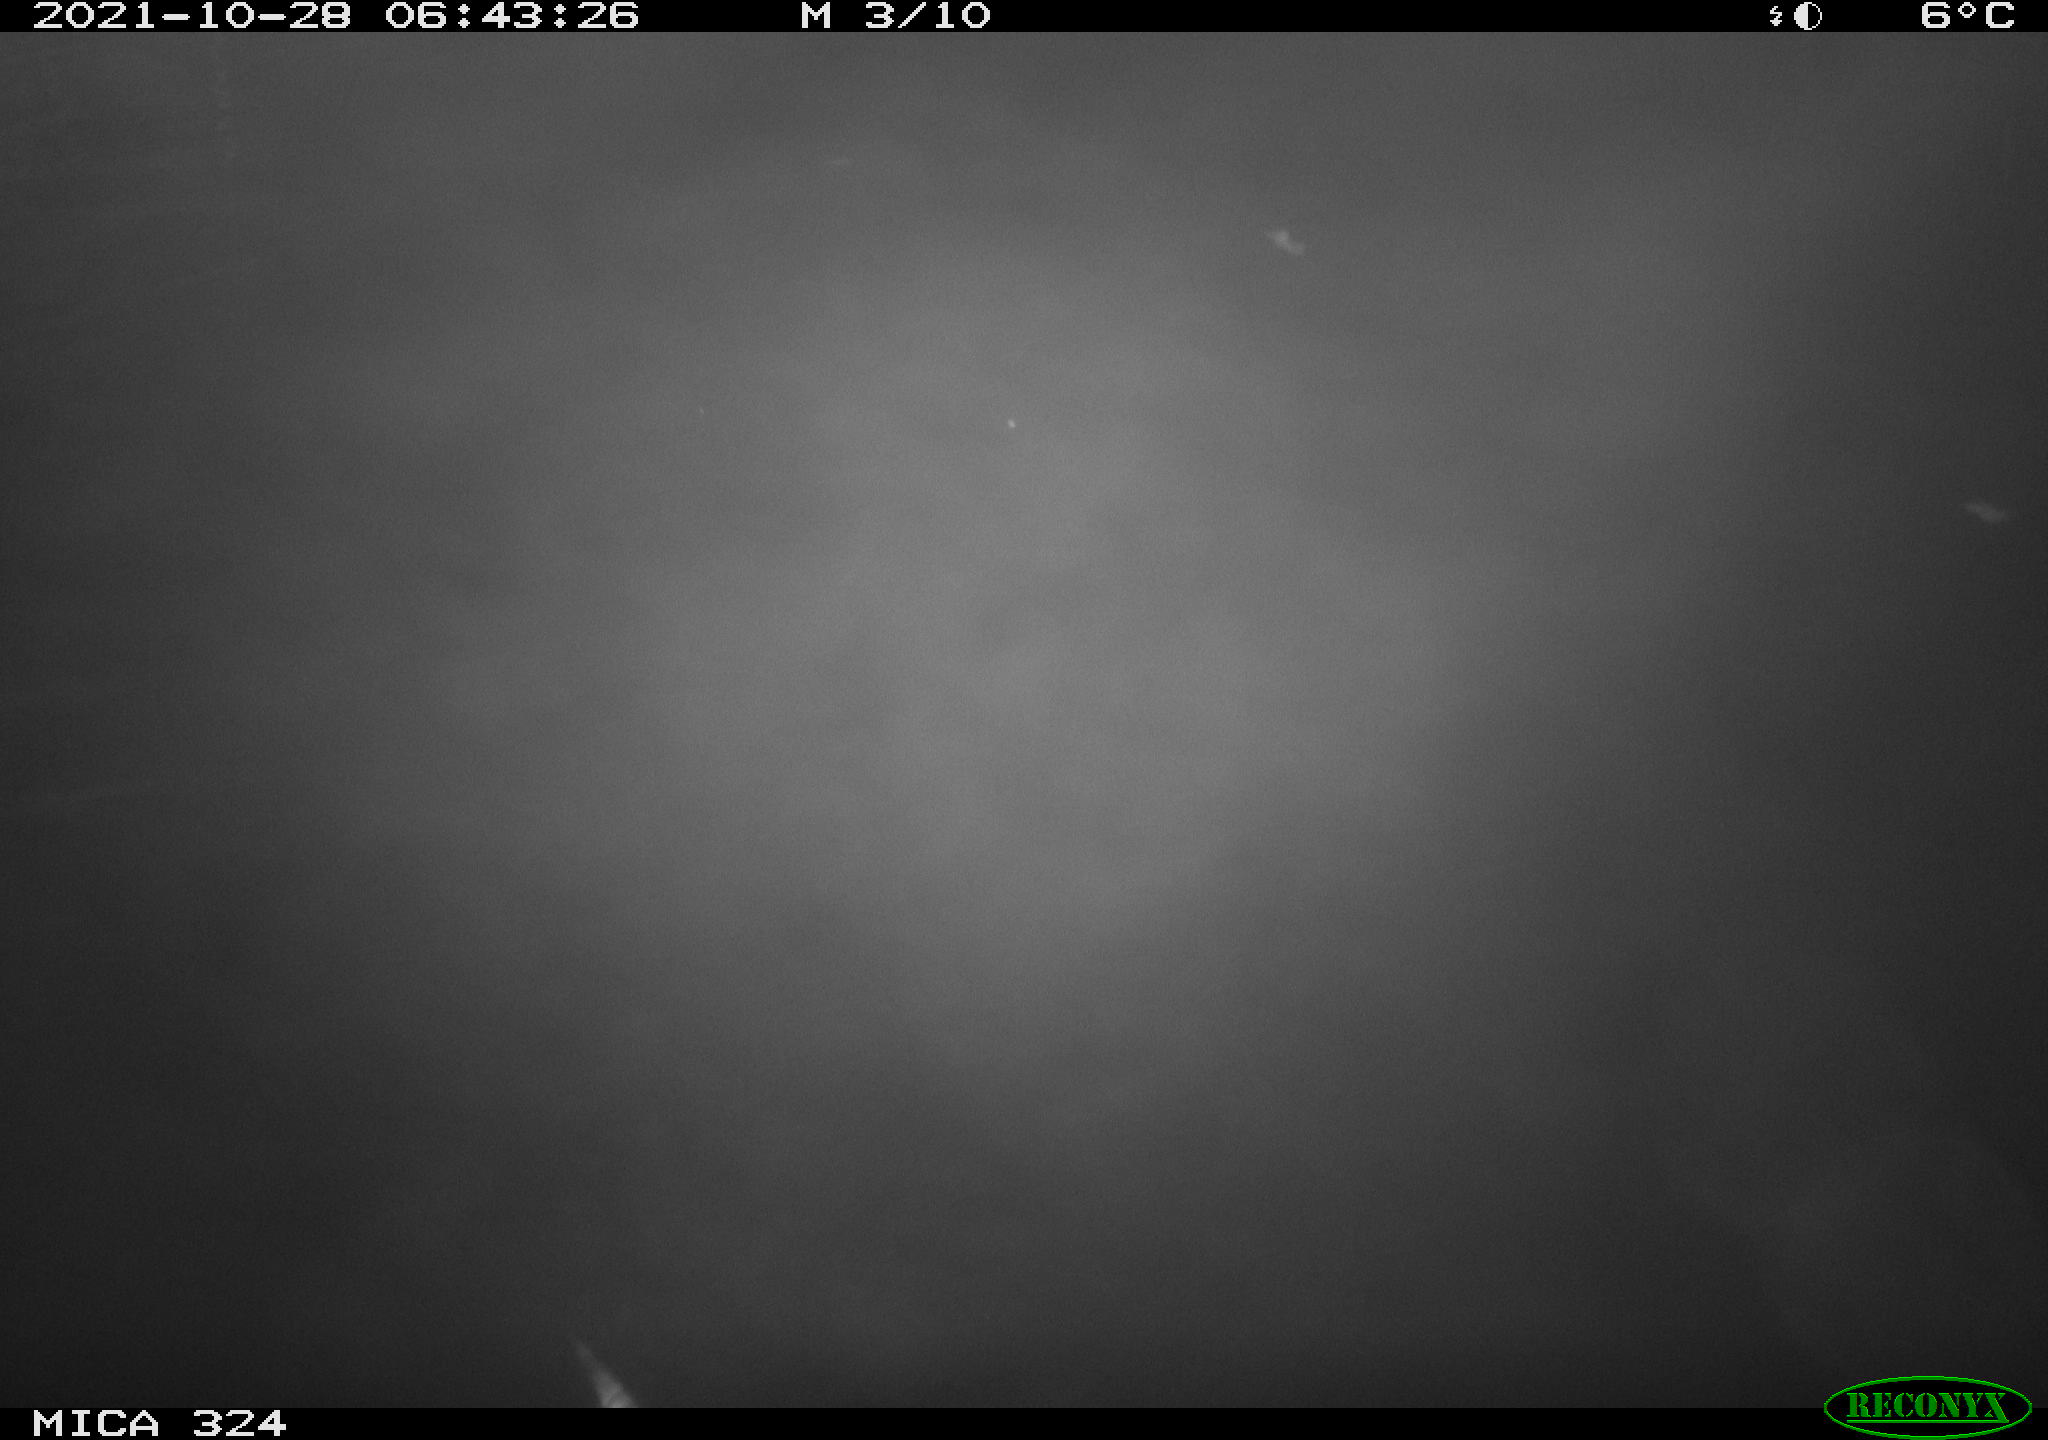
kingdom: Animalia
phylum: Chordata
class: Mammalia
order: Rodentia
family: Cricetidae
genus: Ondatra
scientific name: Ondatra zibethicus
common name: Muskrat
